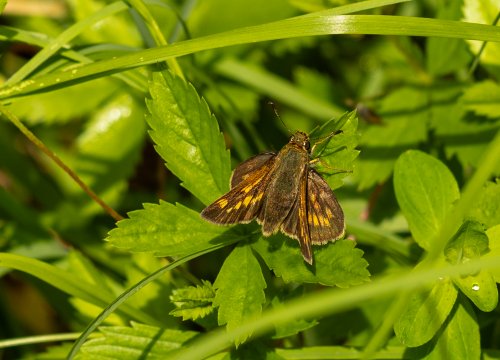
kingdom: Animalia
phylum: Arthropoda
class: Insecta
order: Lepidoptera
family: Hesperiidae
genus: Polites
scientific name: Polites
